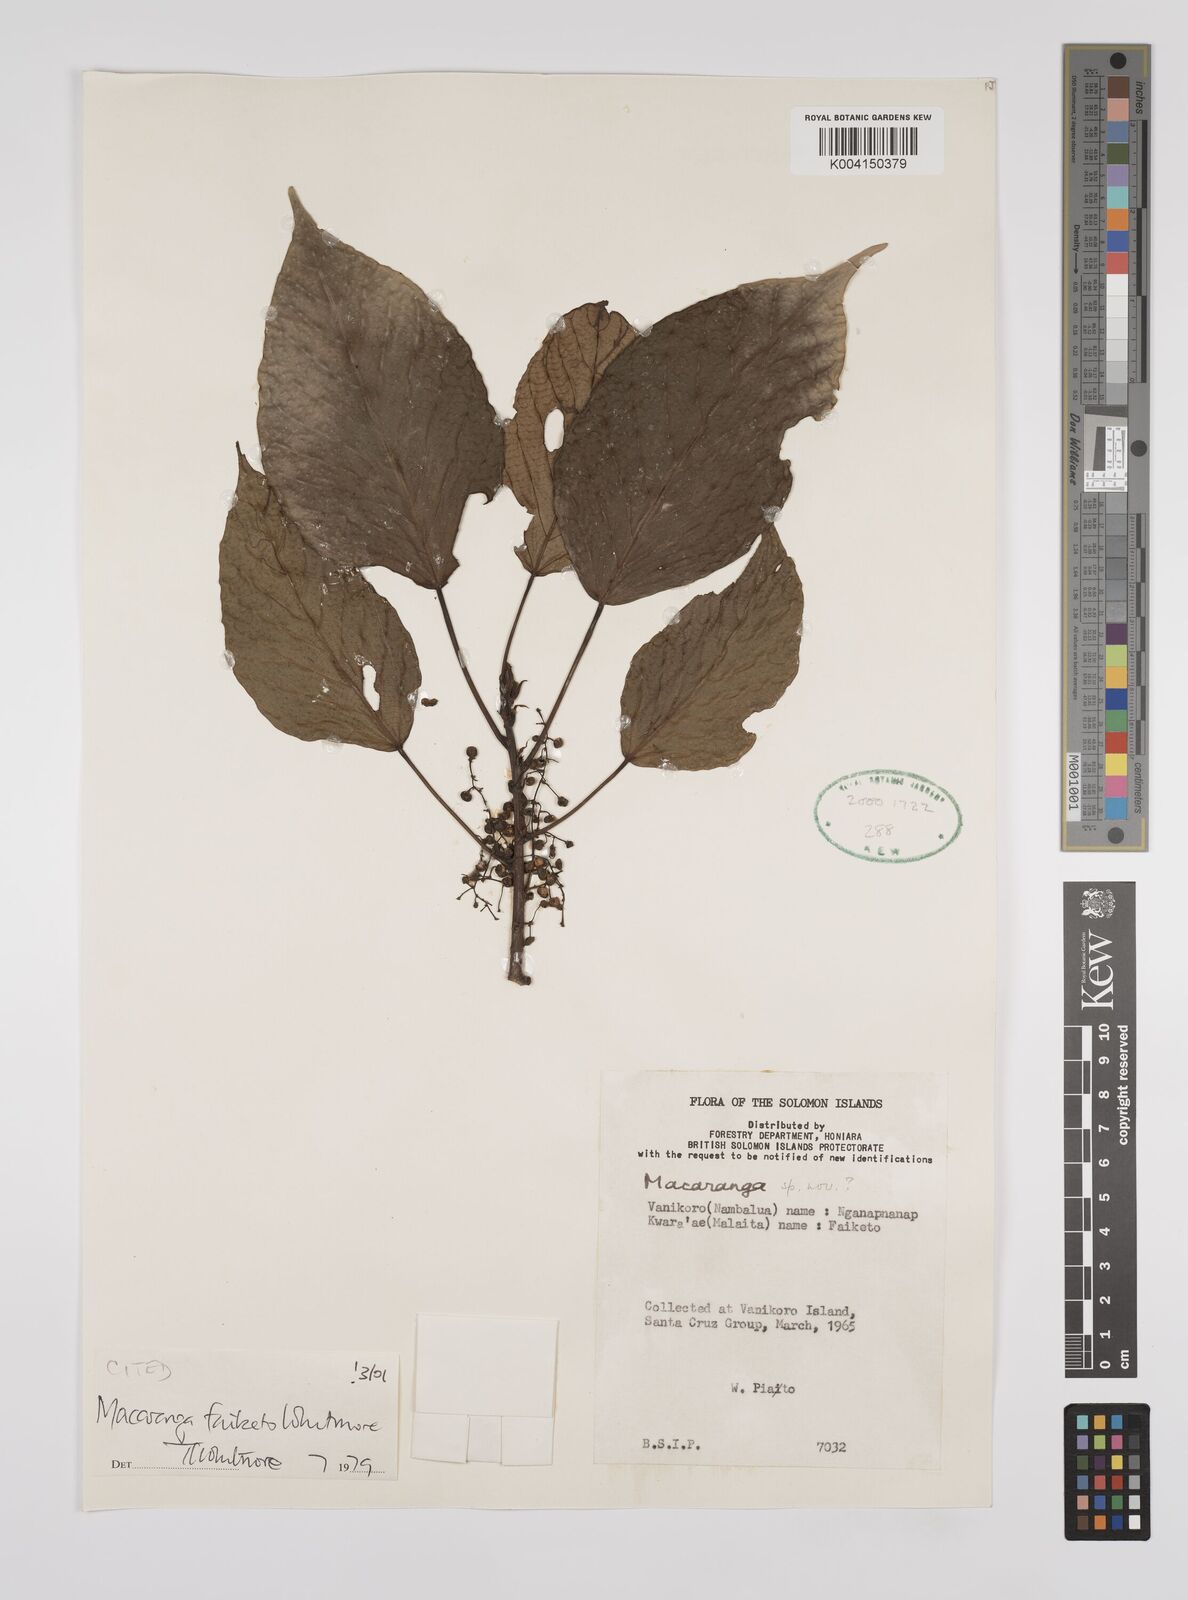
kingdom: Plantae
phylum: Tracheophyta
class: Magnoliopsida
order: Malpighiales
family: Euphorbiaceae
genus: Macaranga
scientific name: Macaranga faiketo
